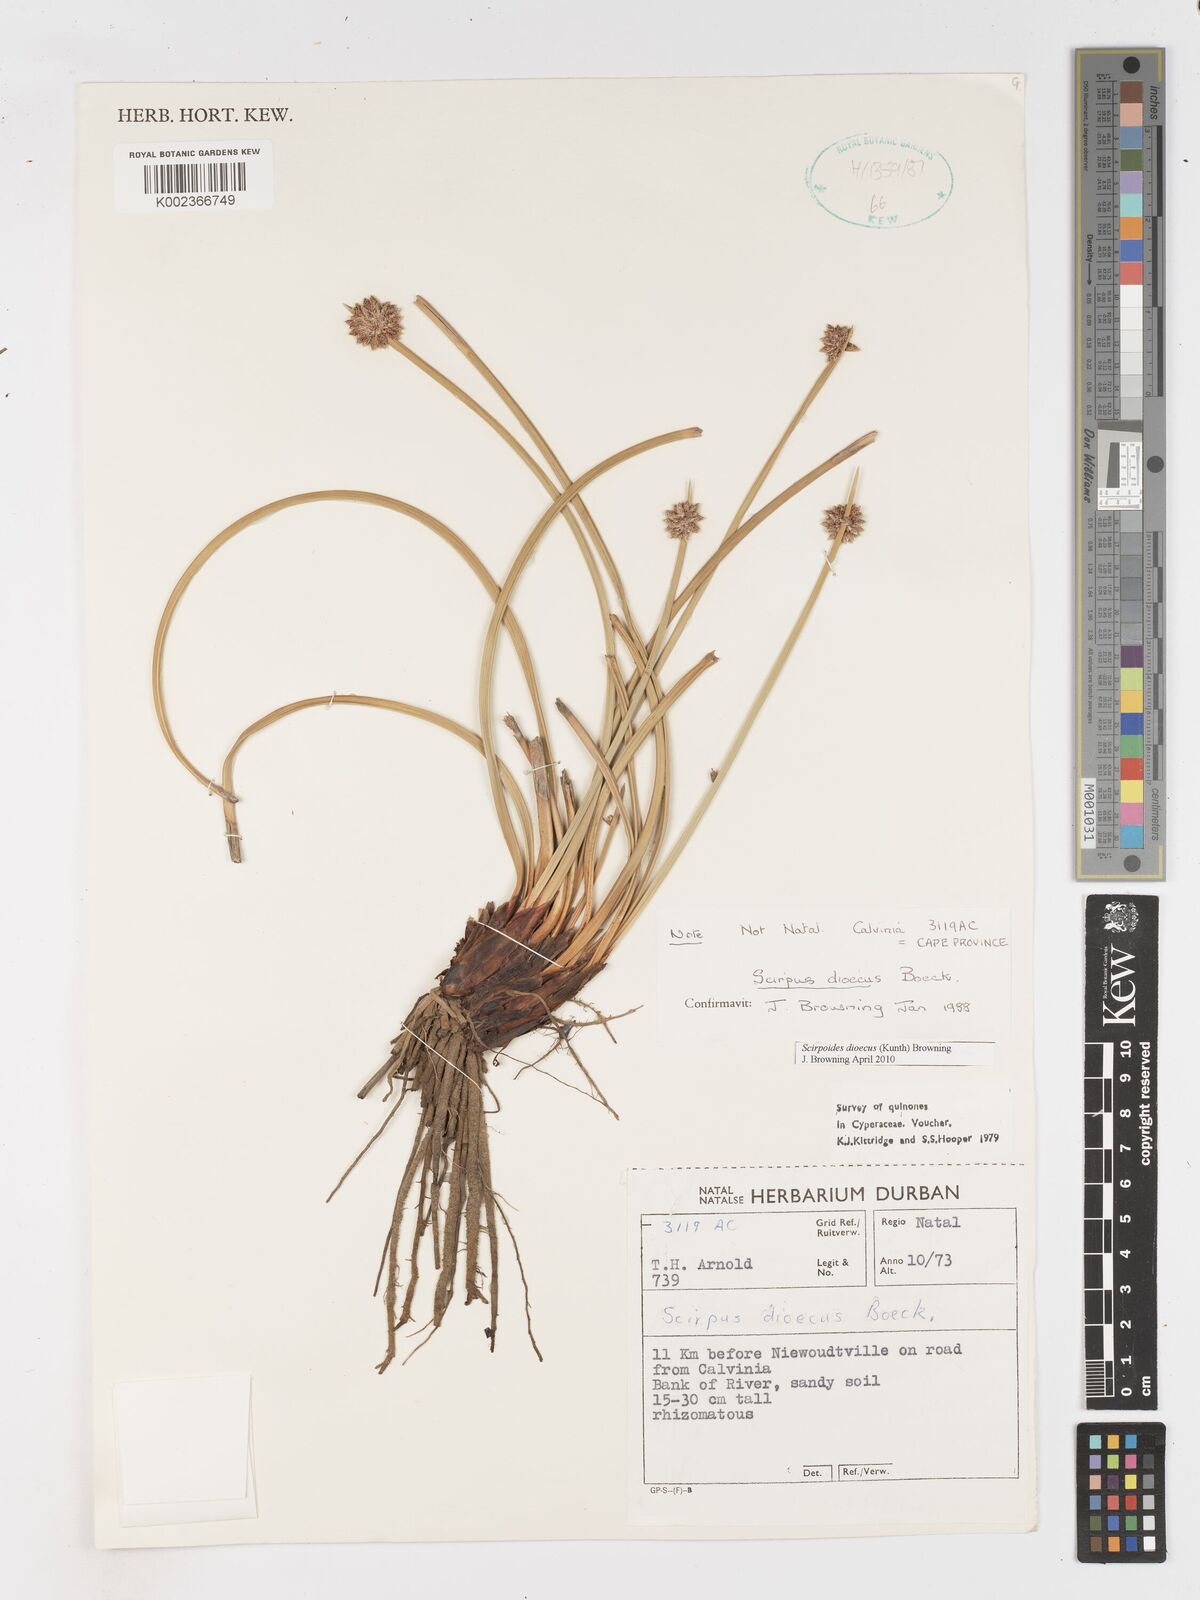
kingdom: Plantae
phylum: Tracheophyta
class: Liliopsida
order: Poales
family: Cyperaceae
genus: Afroscirpoides
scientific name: Afroscirpoides dioeca
